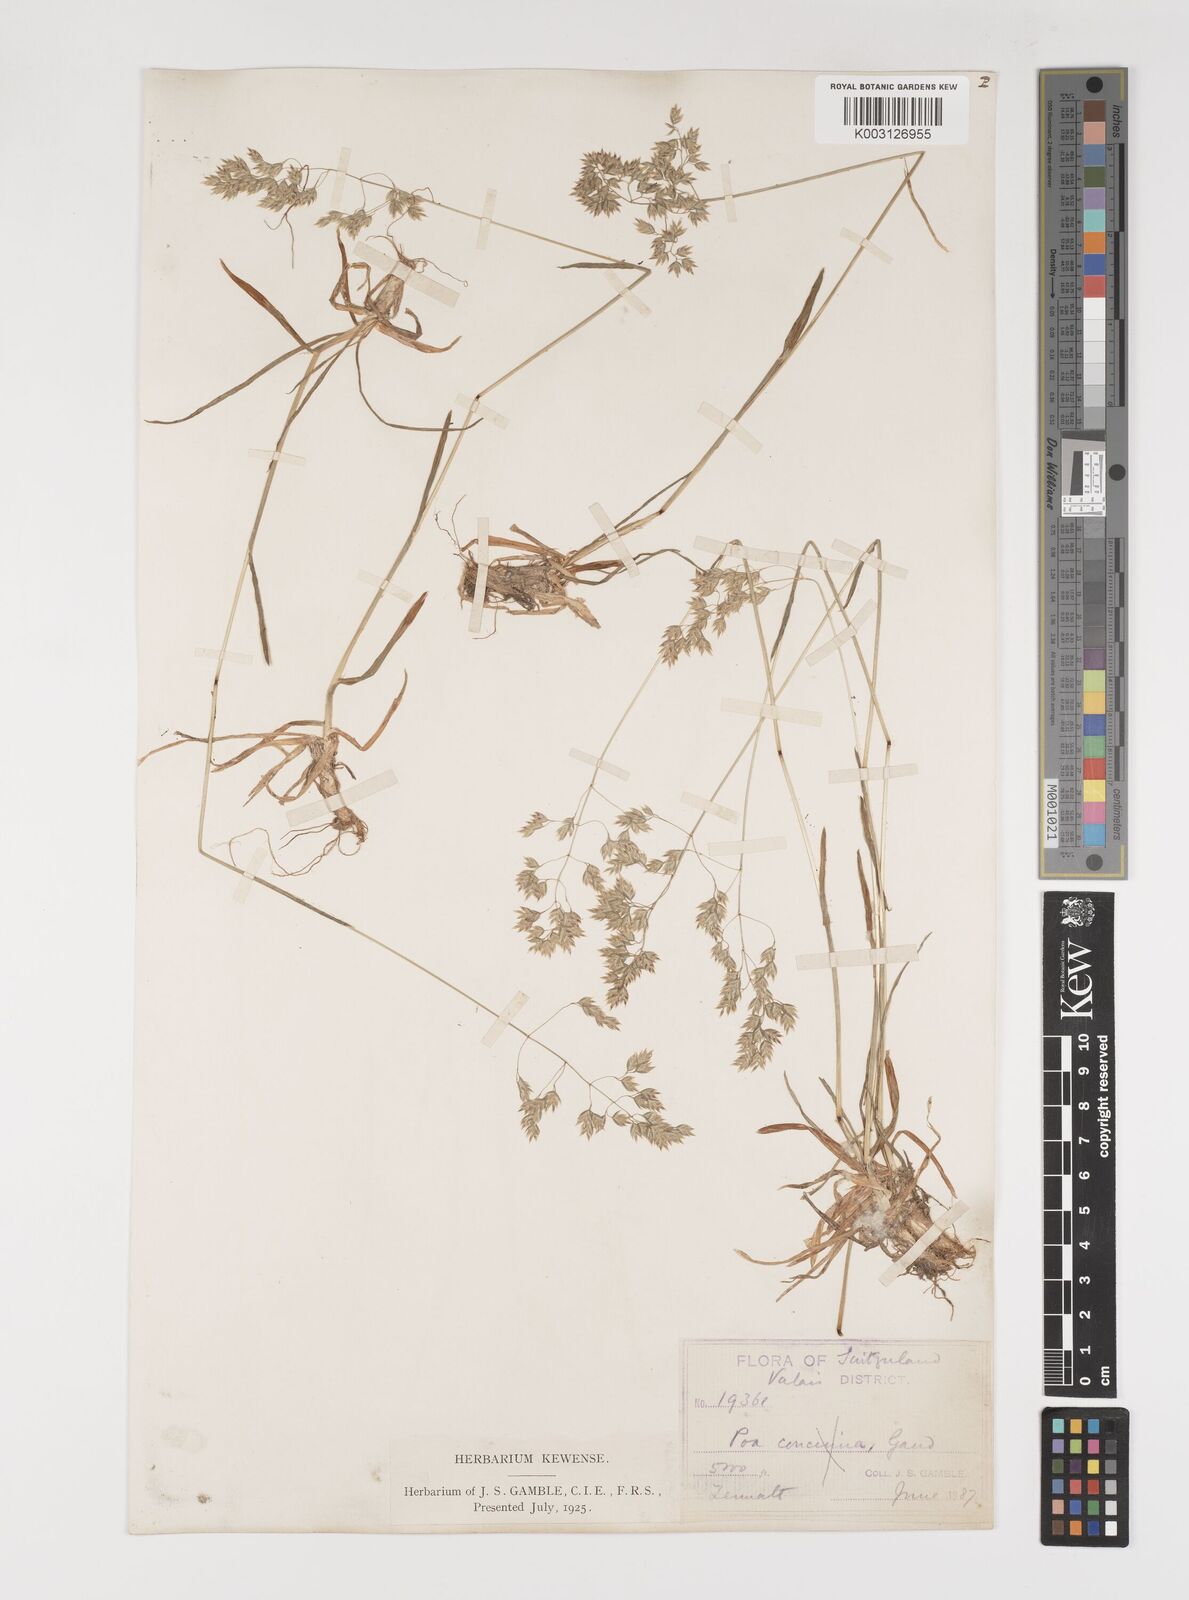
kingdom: Plantae
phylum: Tracheophyta
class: Liliopsida
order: Poales
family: Poaceae
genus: Poa
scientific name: Poa perconcinna
